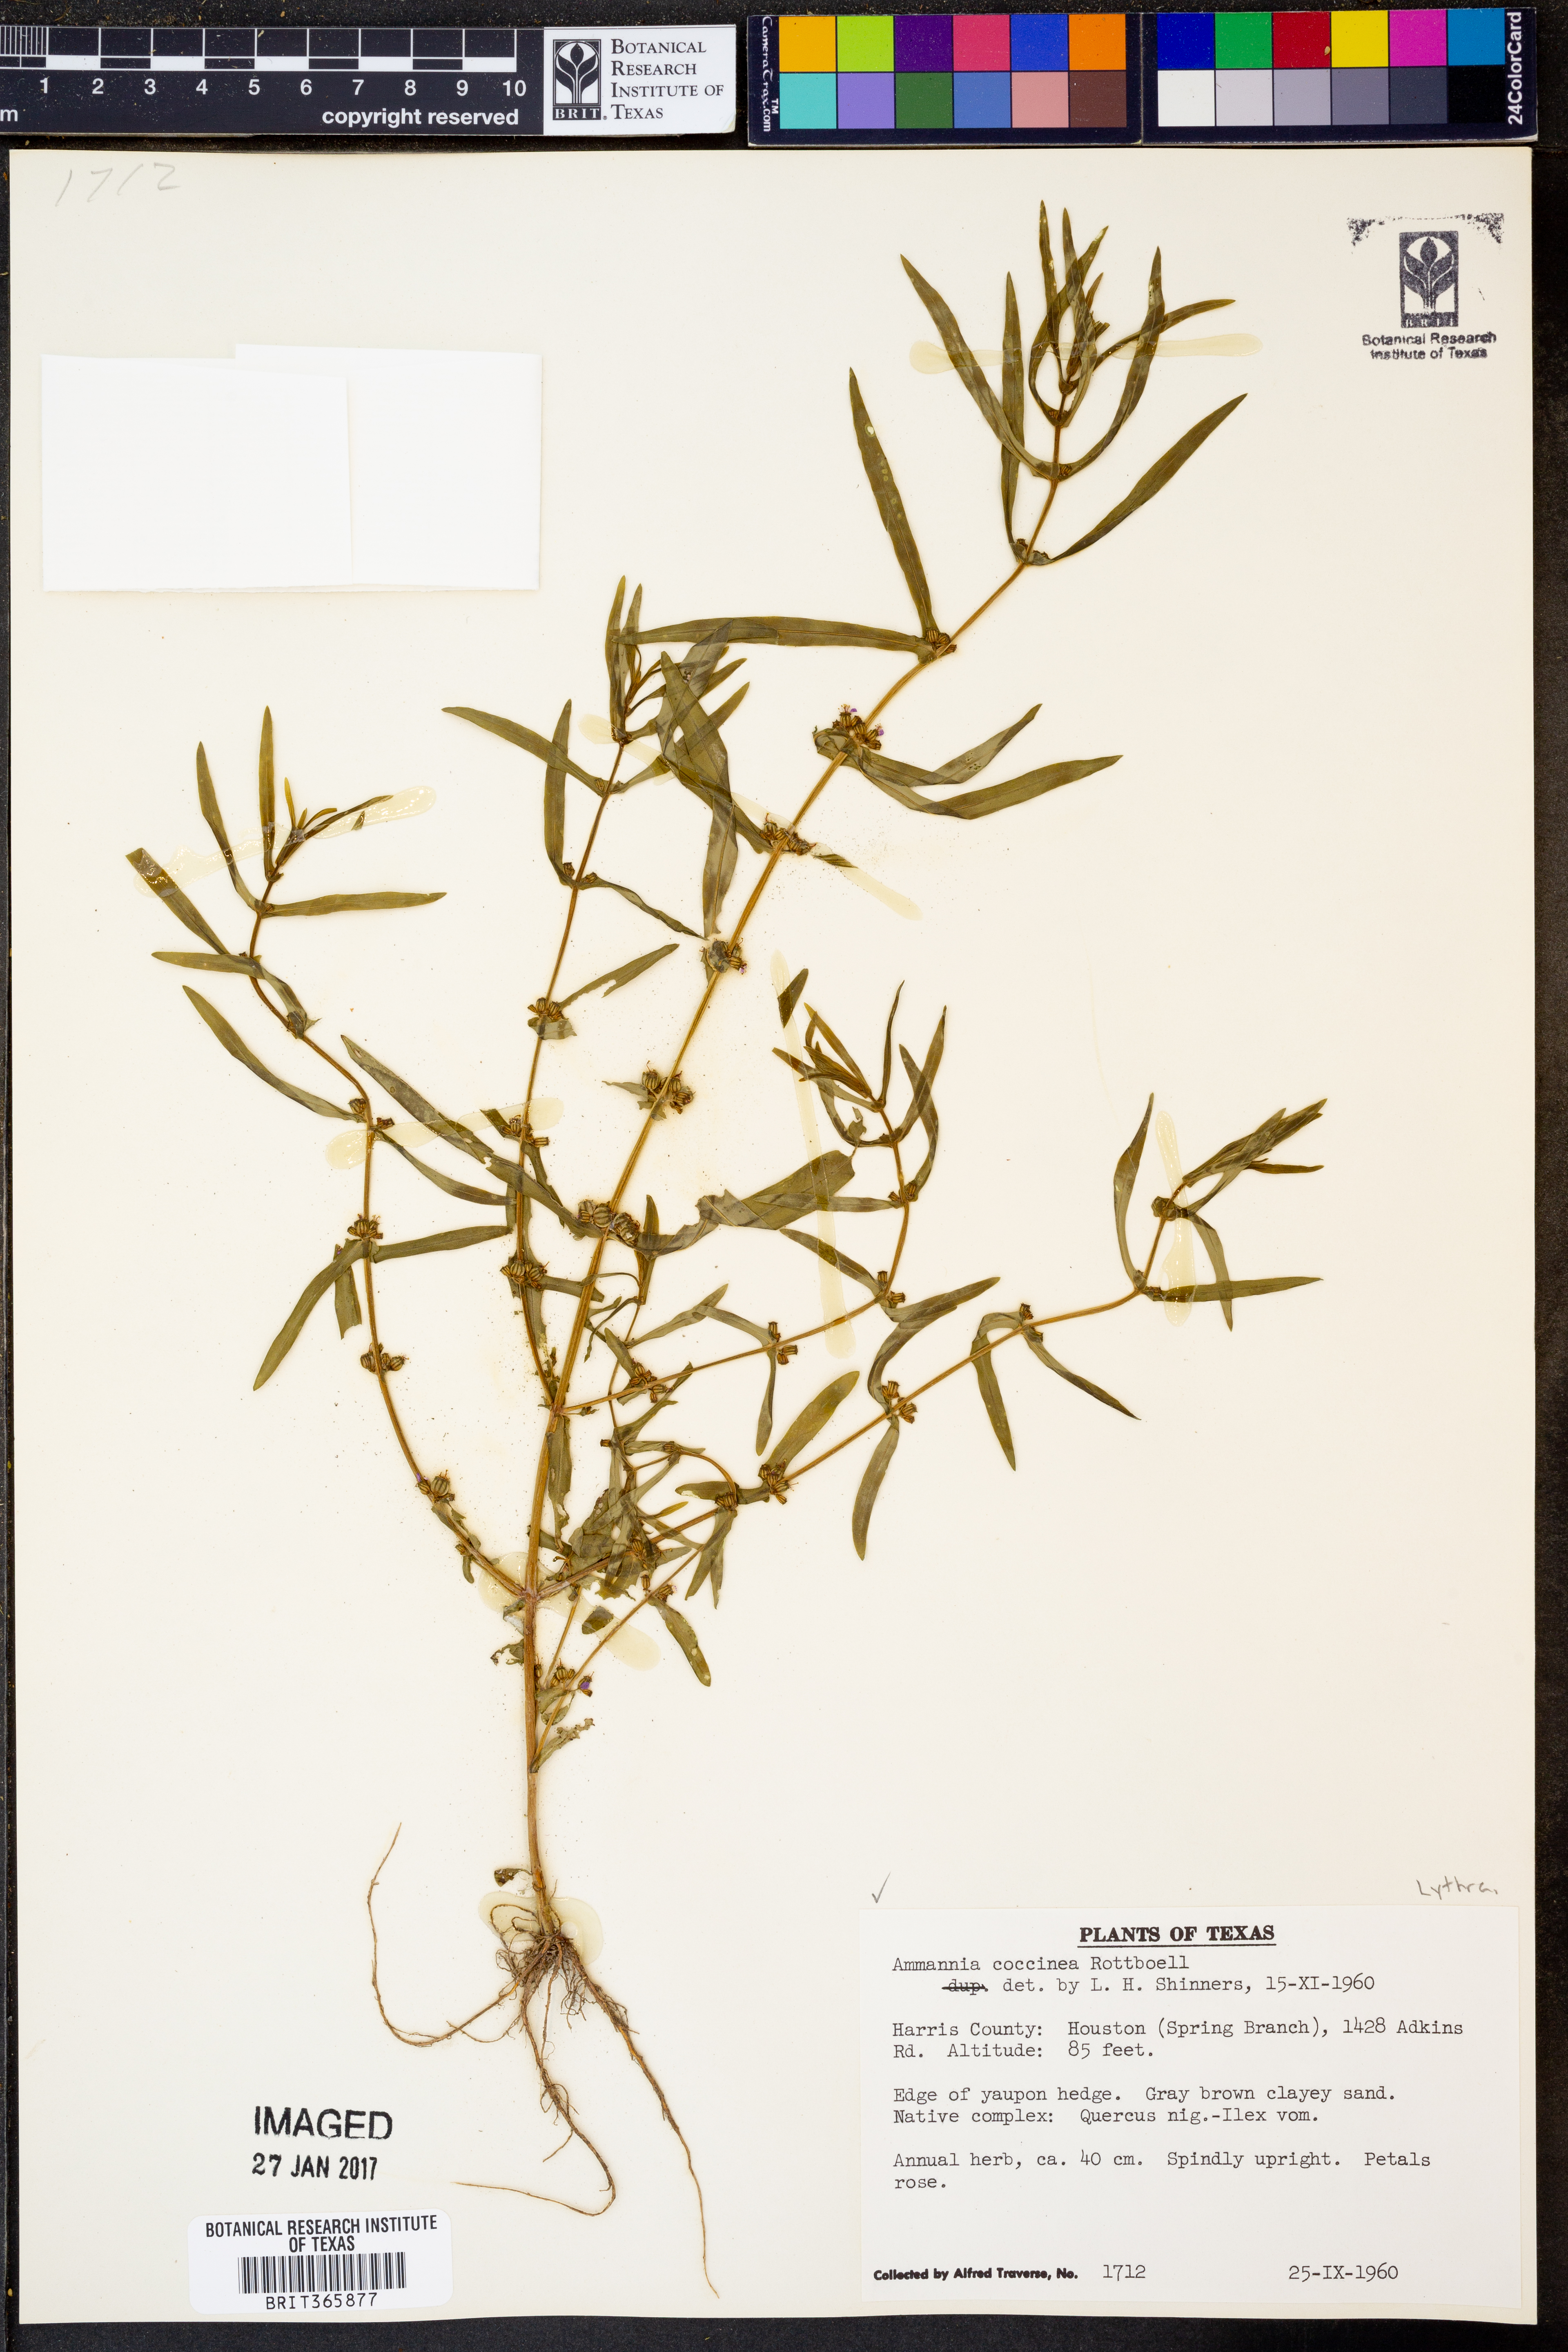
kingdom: Plantae
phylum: Tracheophyta
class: Magnoliopsida
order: Myrtales
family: Lythraceae
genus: Ammannia
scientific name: Ammannia coccinea
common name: Valley redstem
